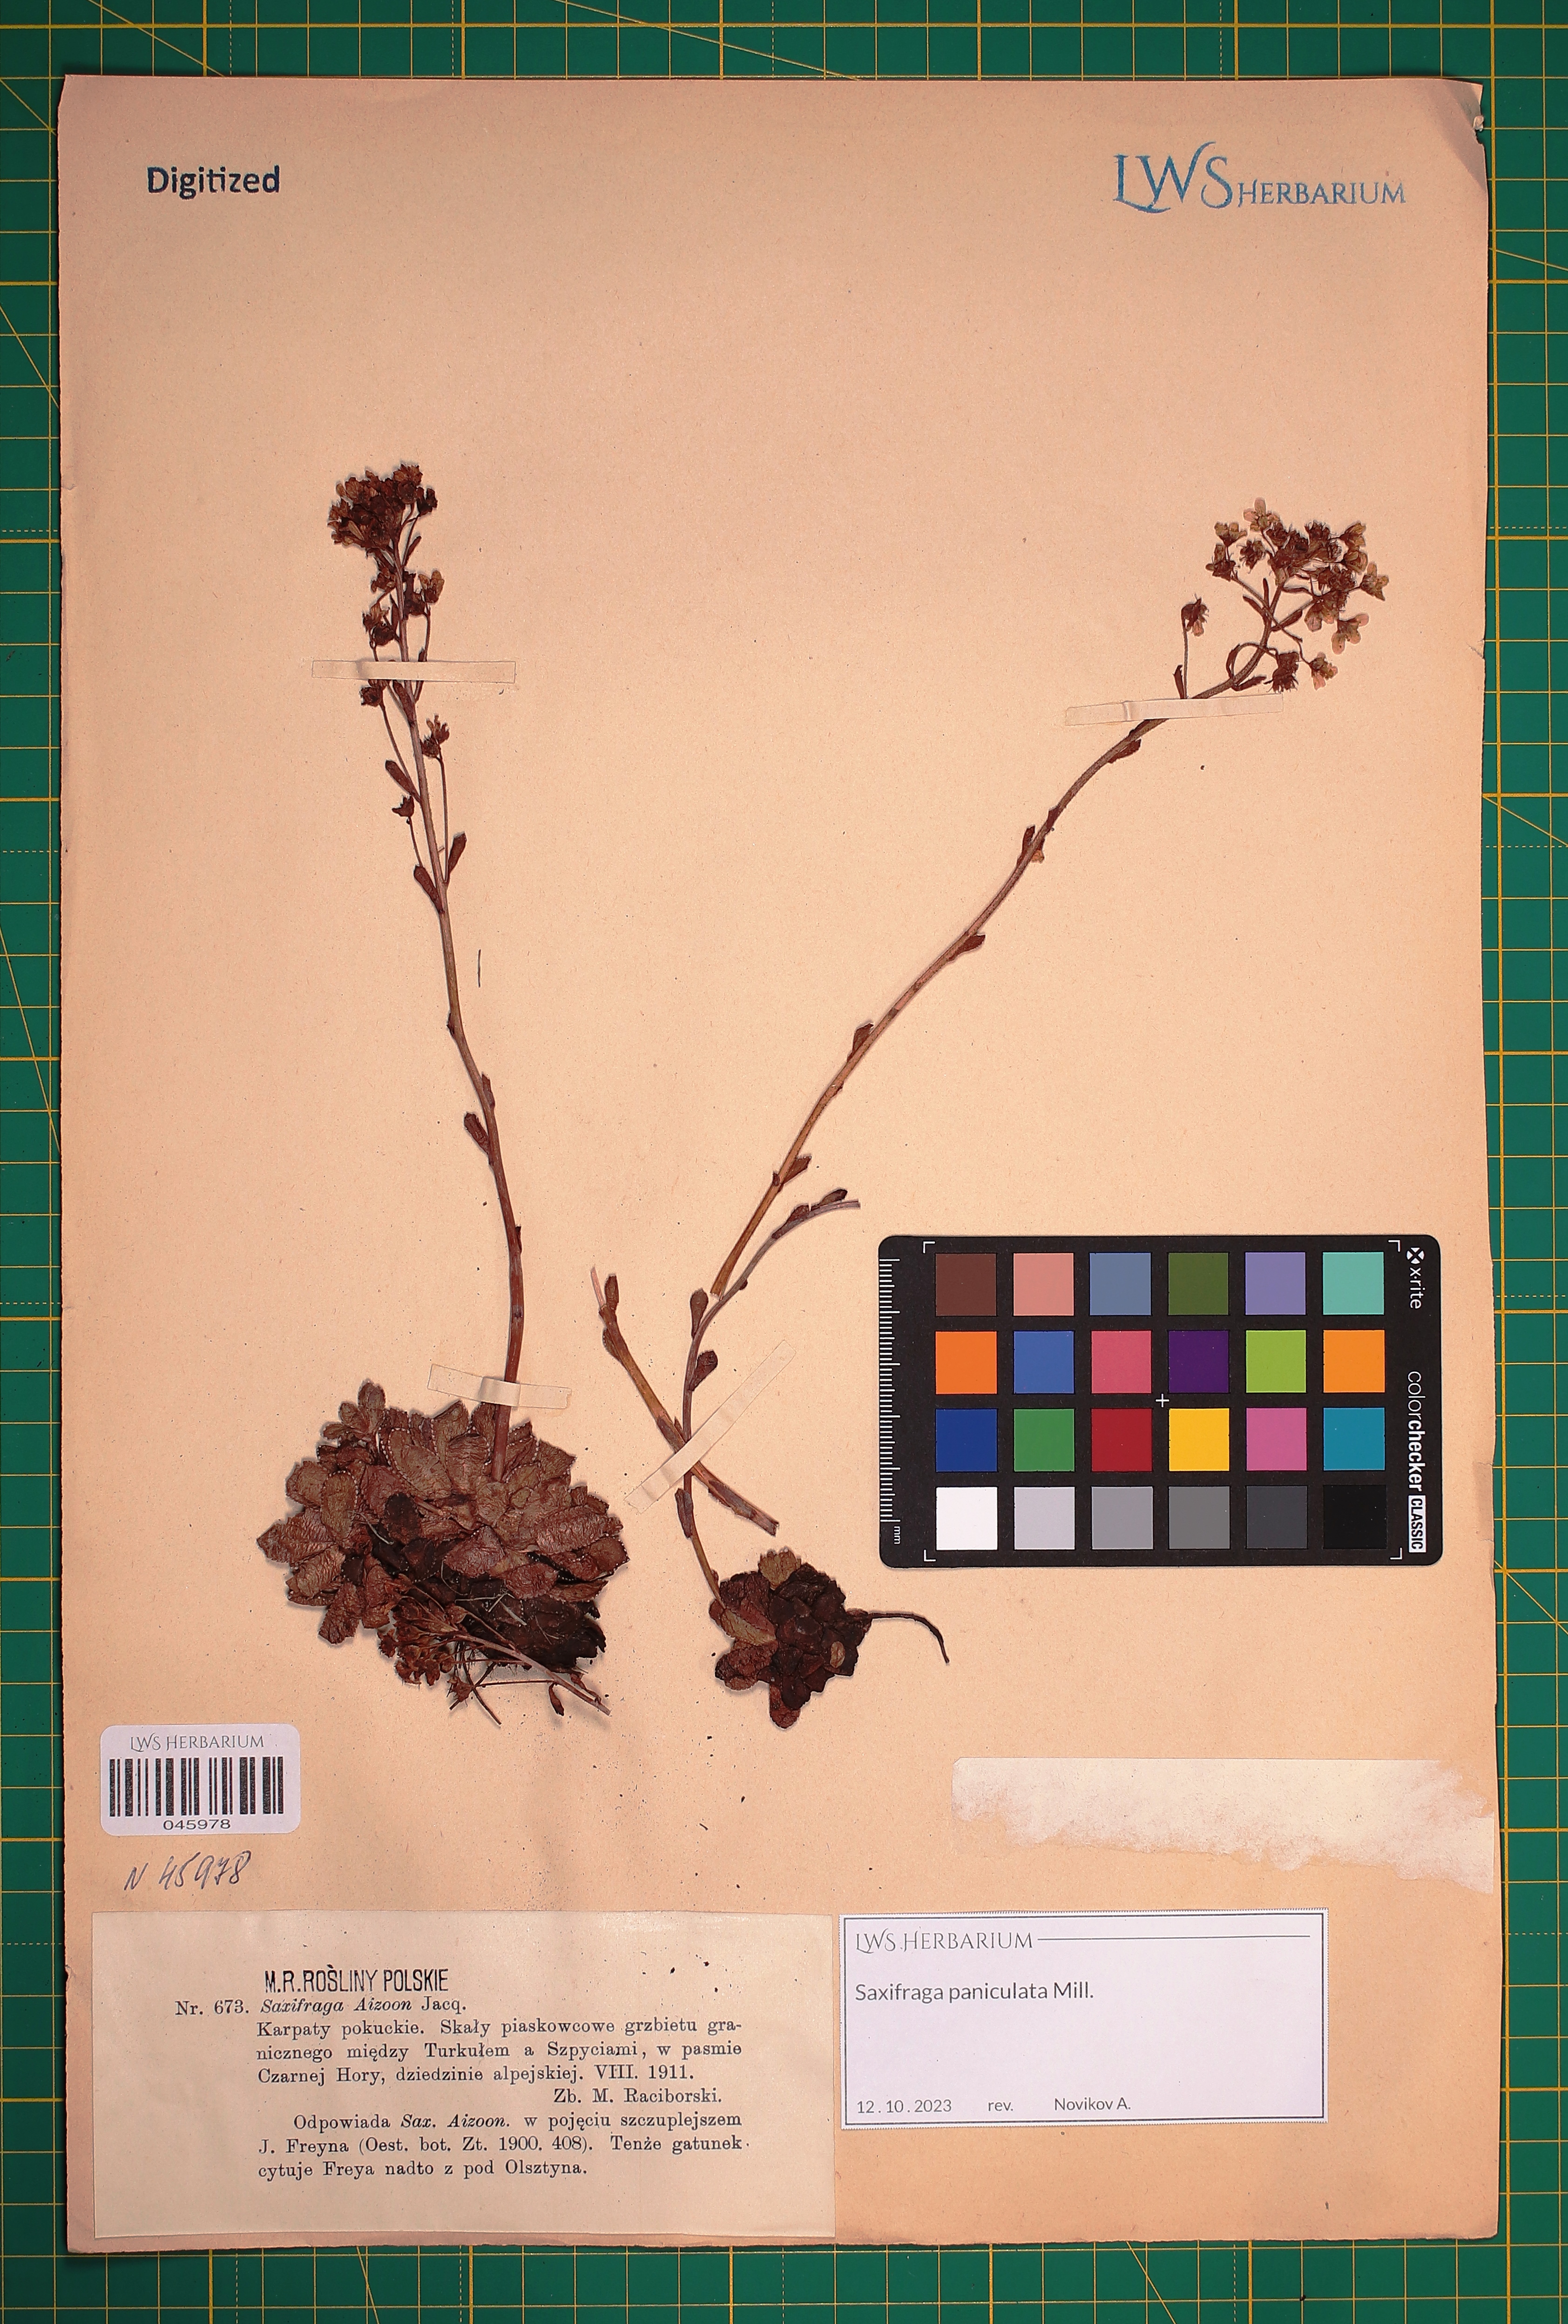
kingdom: Plantae
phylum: Tracheophyta
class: Magnoliopsida
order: Saxifragales
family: Saxifragaceae
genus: Saxifraga
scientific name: Saxifraga paniculata
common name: Livelong saxifrage
